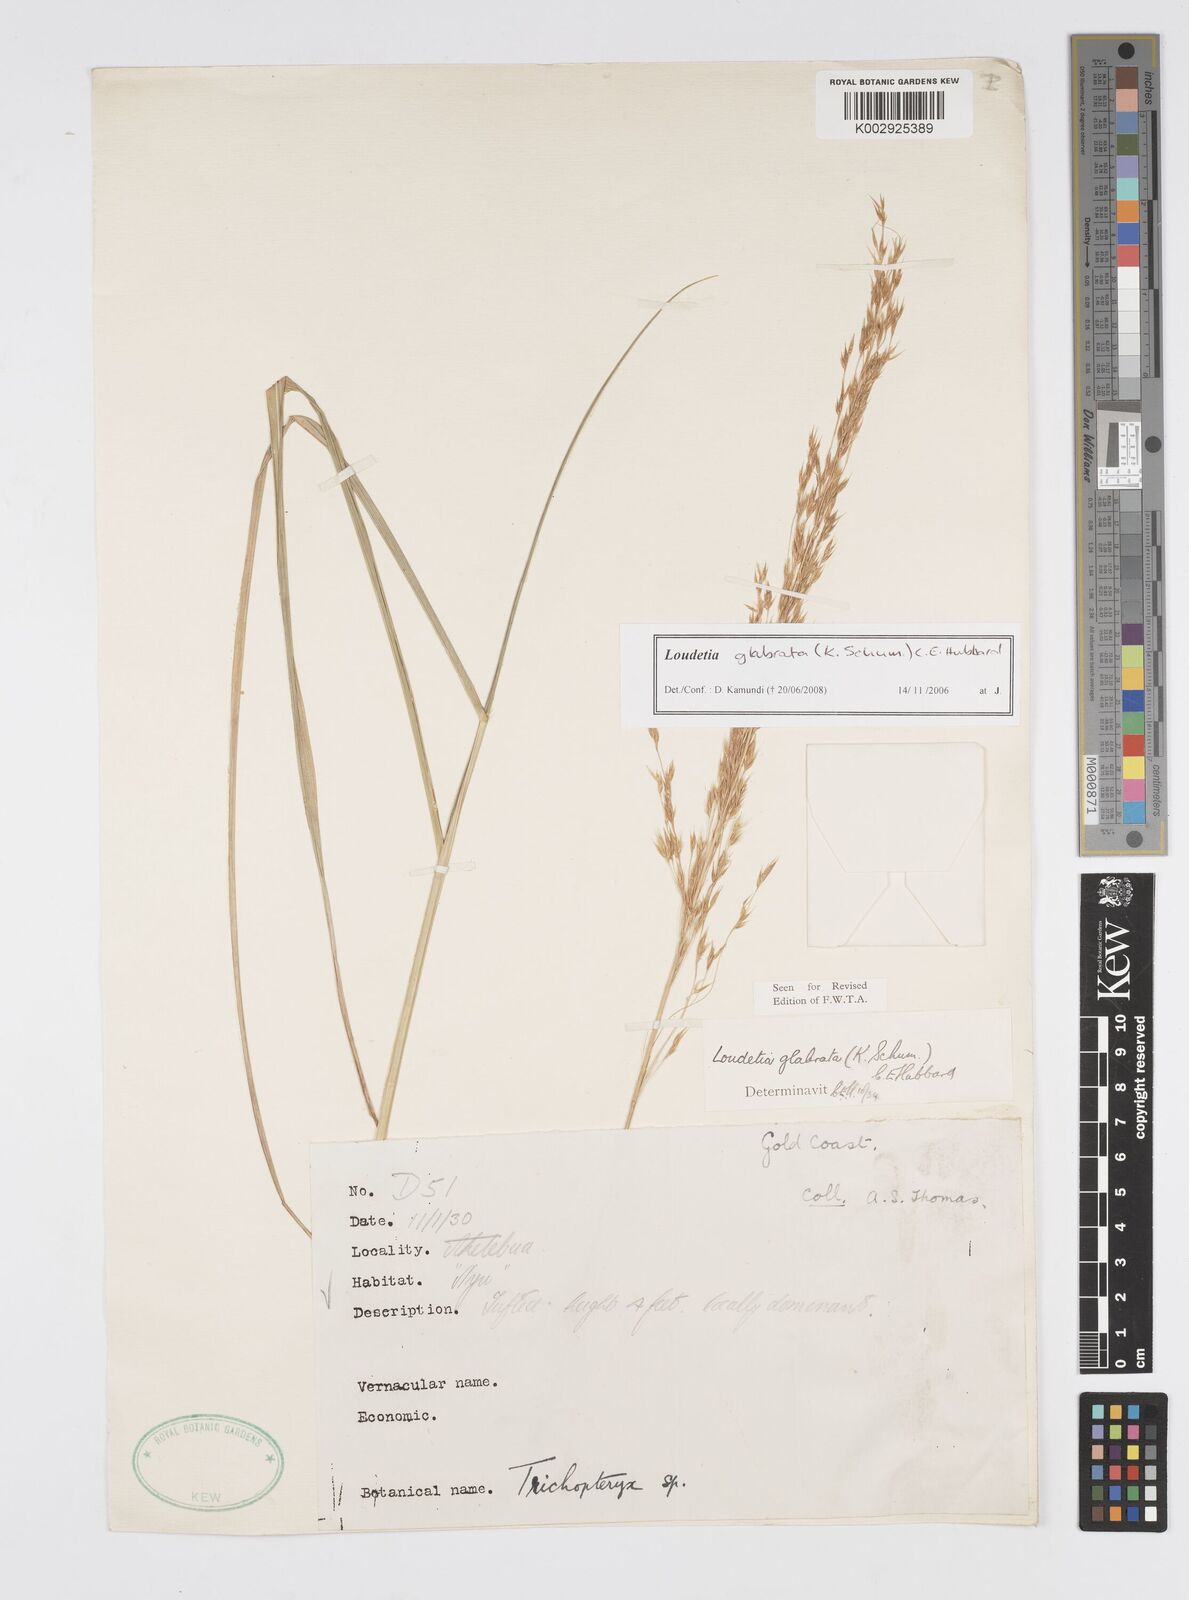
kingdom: Plantae
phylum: Tracheophyta
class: Liliopsida
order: Poales
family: Poaceae
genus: Loudetiopsis
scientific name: Loudetiopsis glabrata
